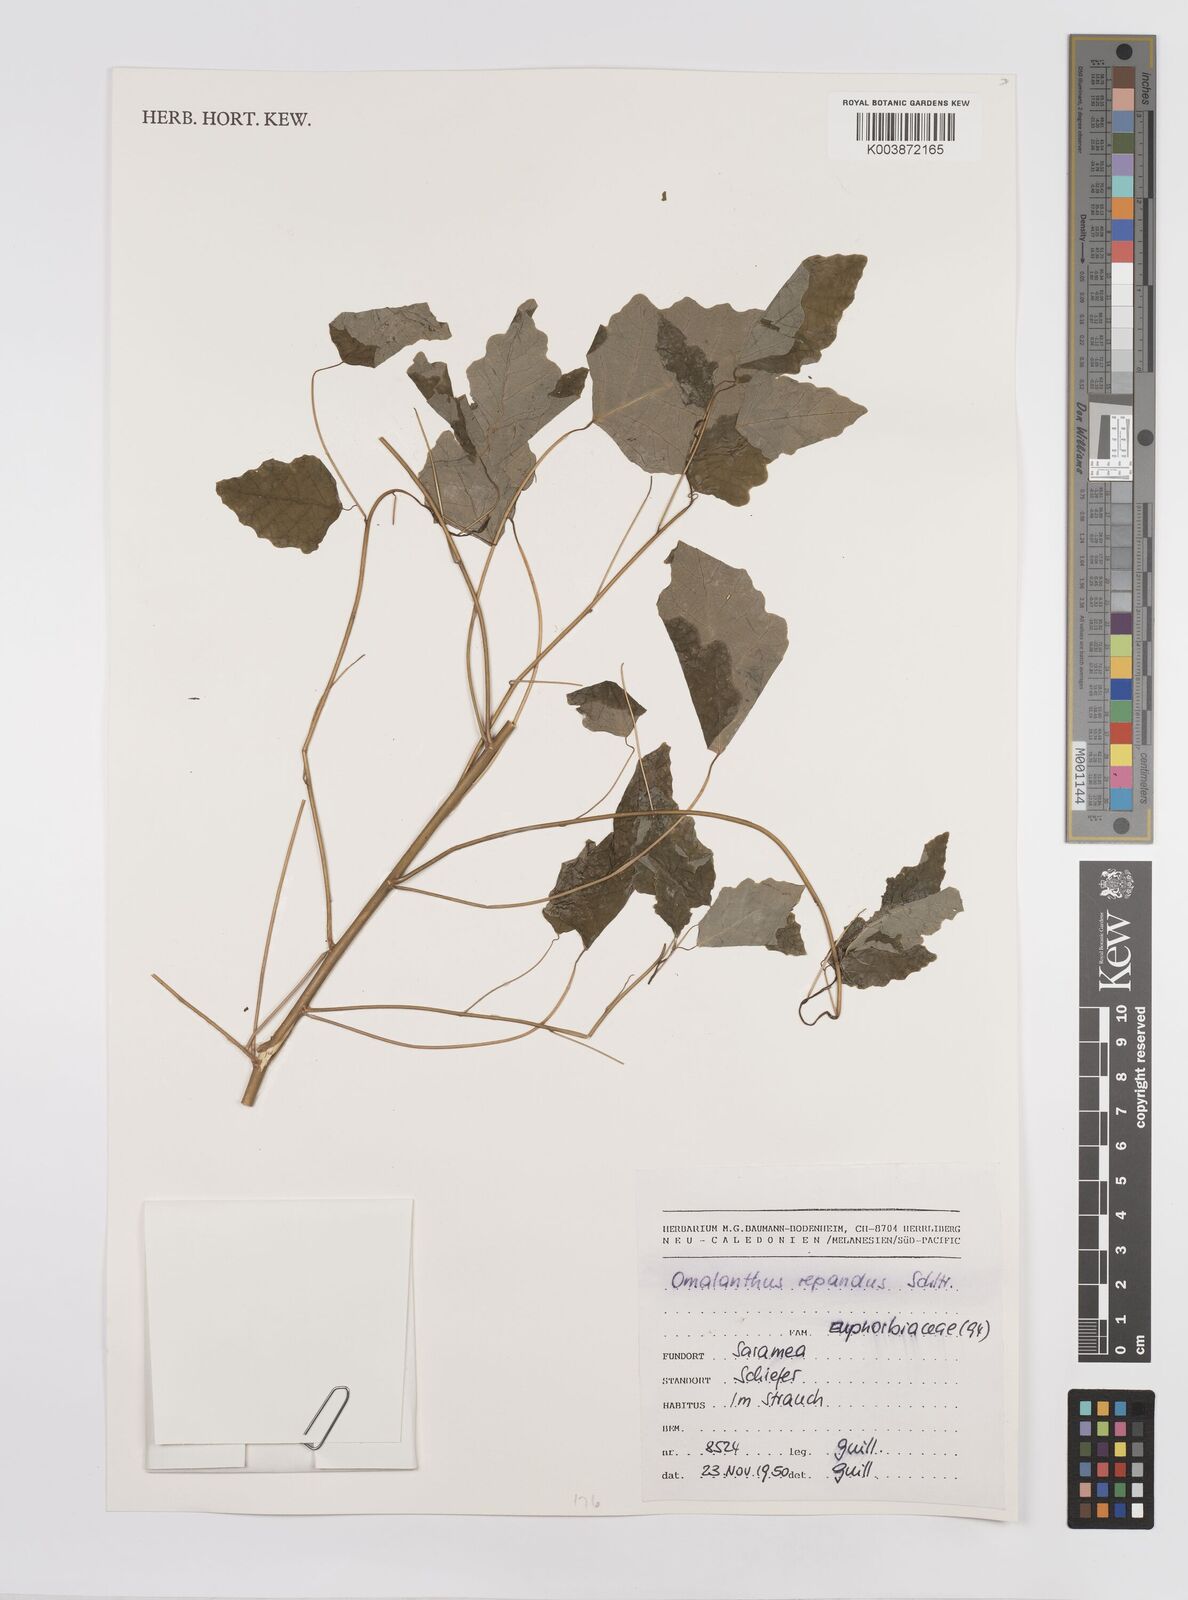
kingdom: Plantae
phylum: Tracheophyta
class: Magnoliopsida
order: Malpighiales
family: Euphorbiaceae
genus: Homalanthus
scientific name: Homalanthus repandus
